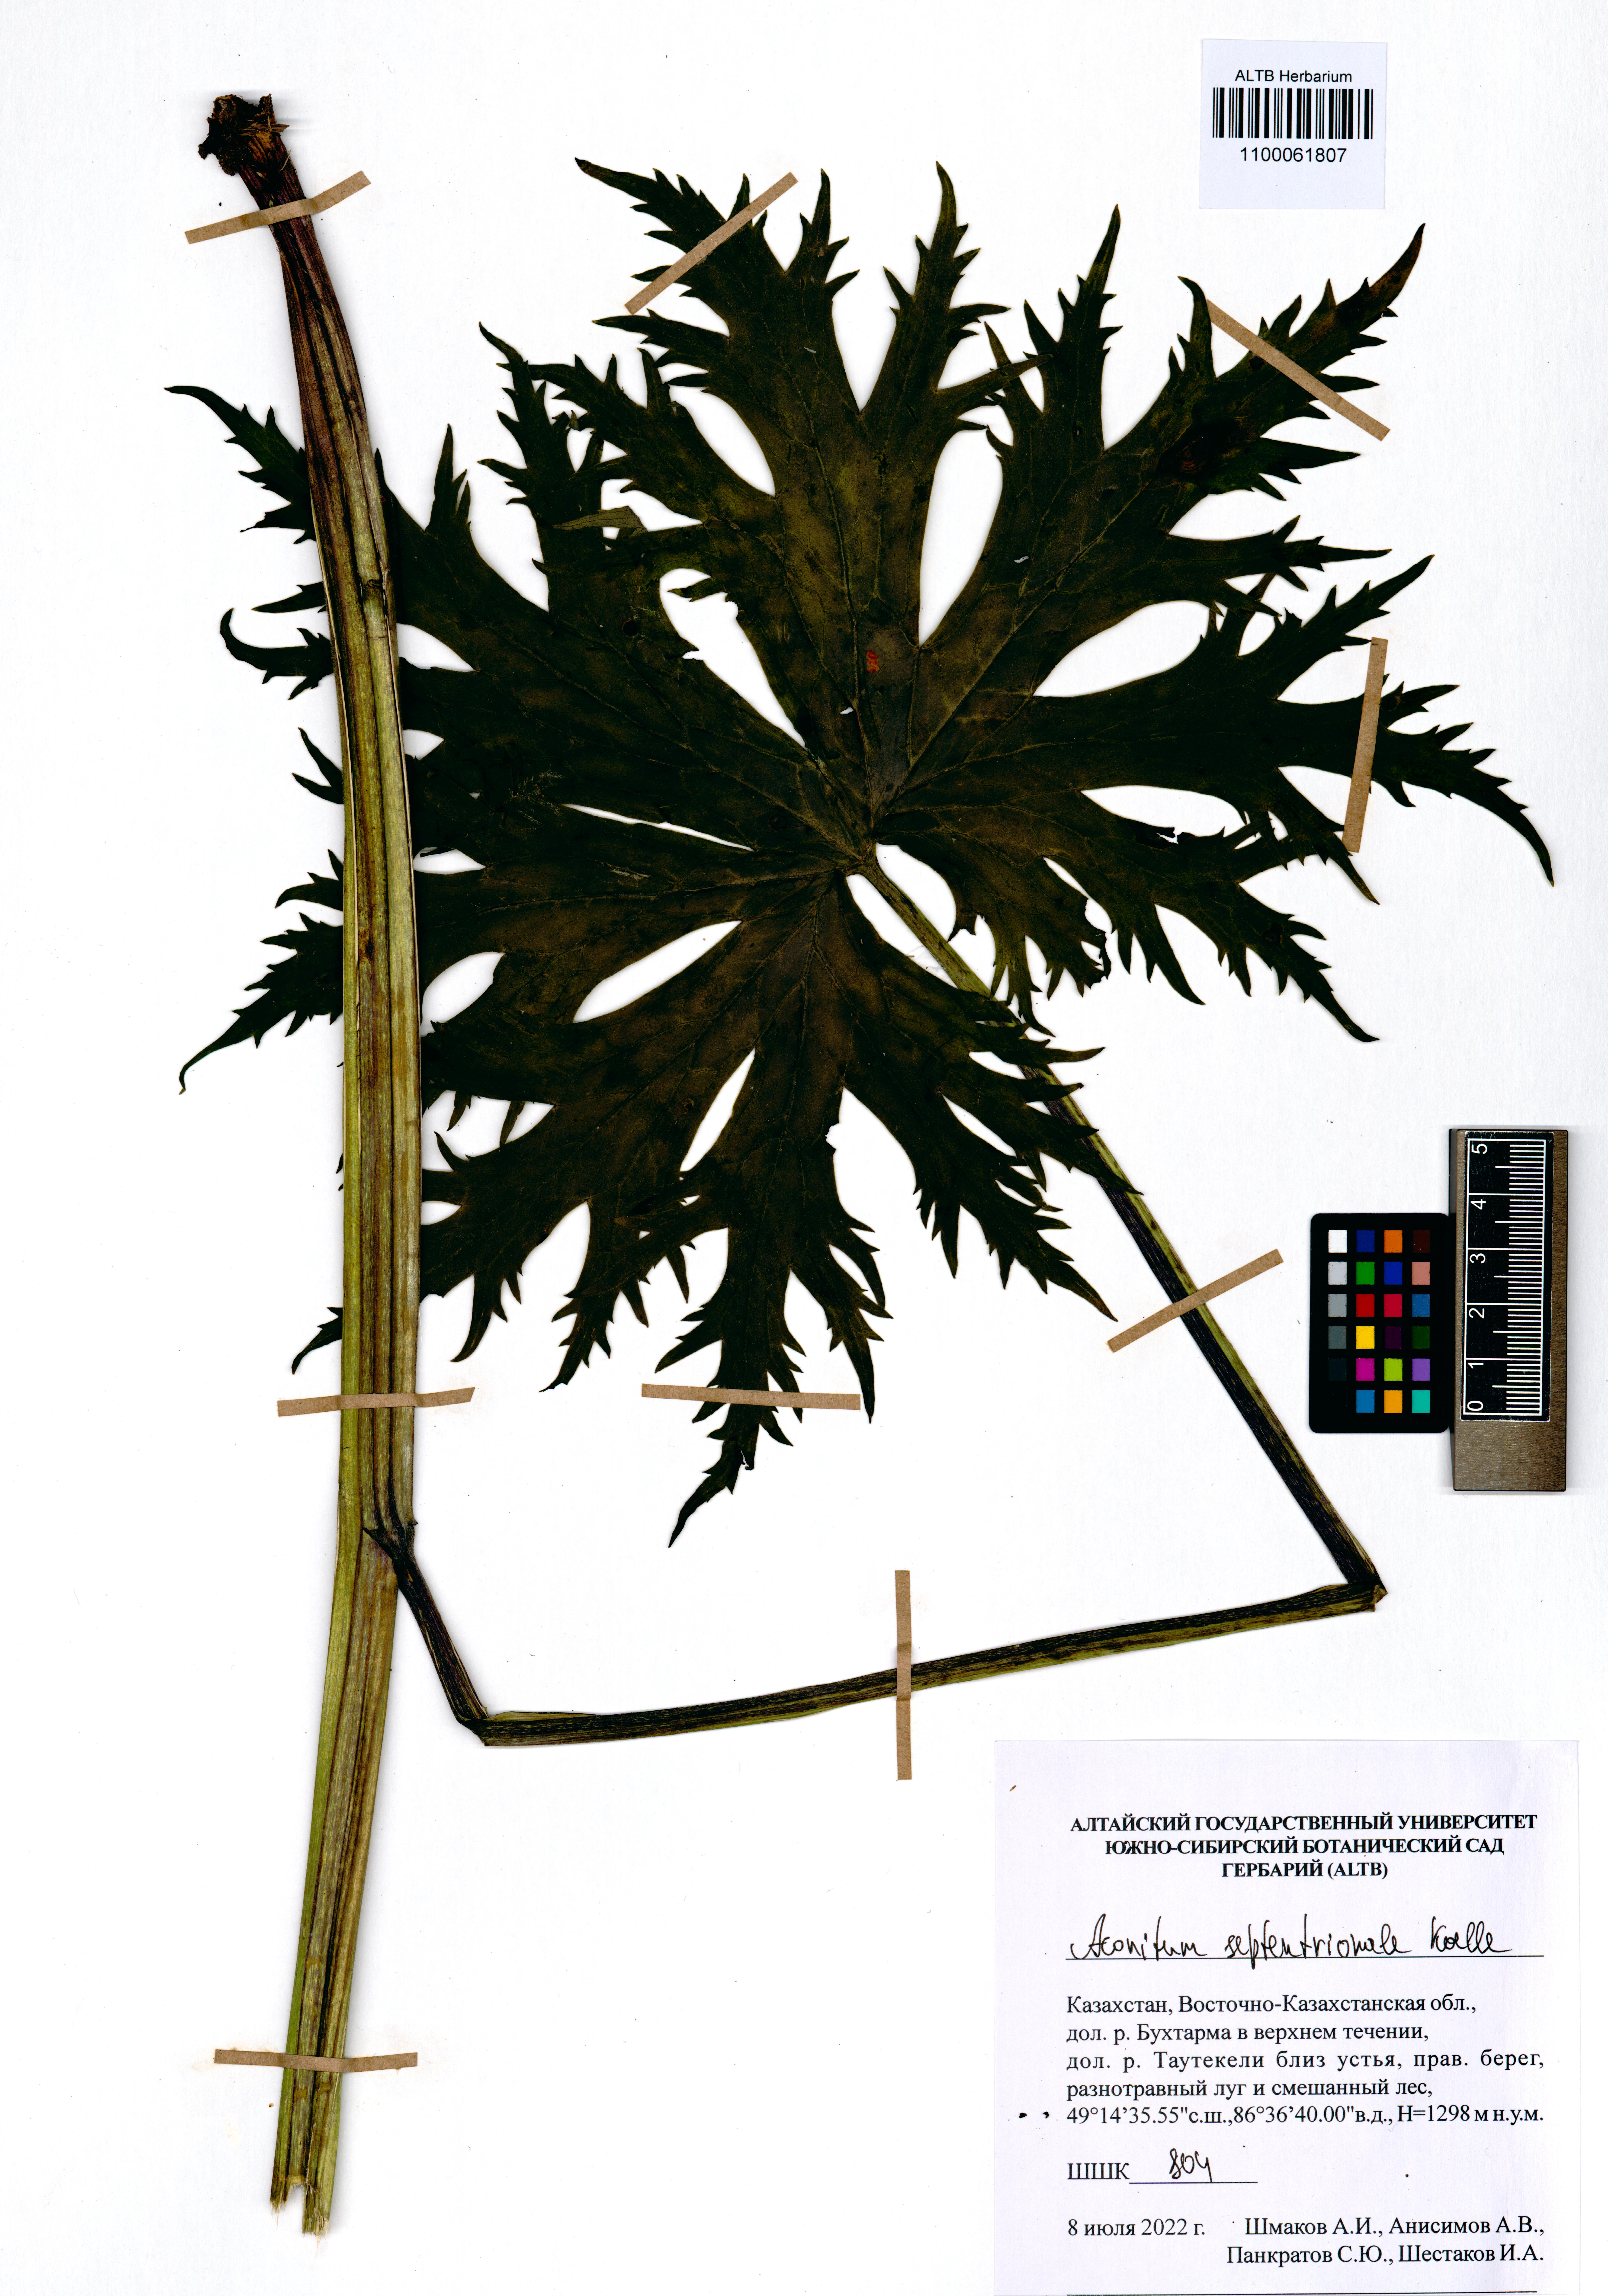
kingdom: Plantae
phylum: Tracheophyta
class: Magnoliopsida
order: Ranunculales
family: Ranunculaceae
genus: Aconitum
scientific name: Aconitum septentrionale
